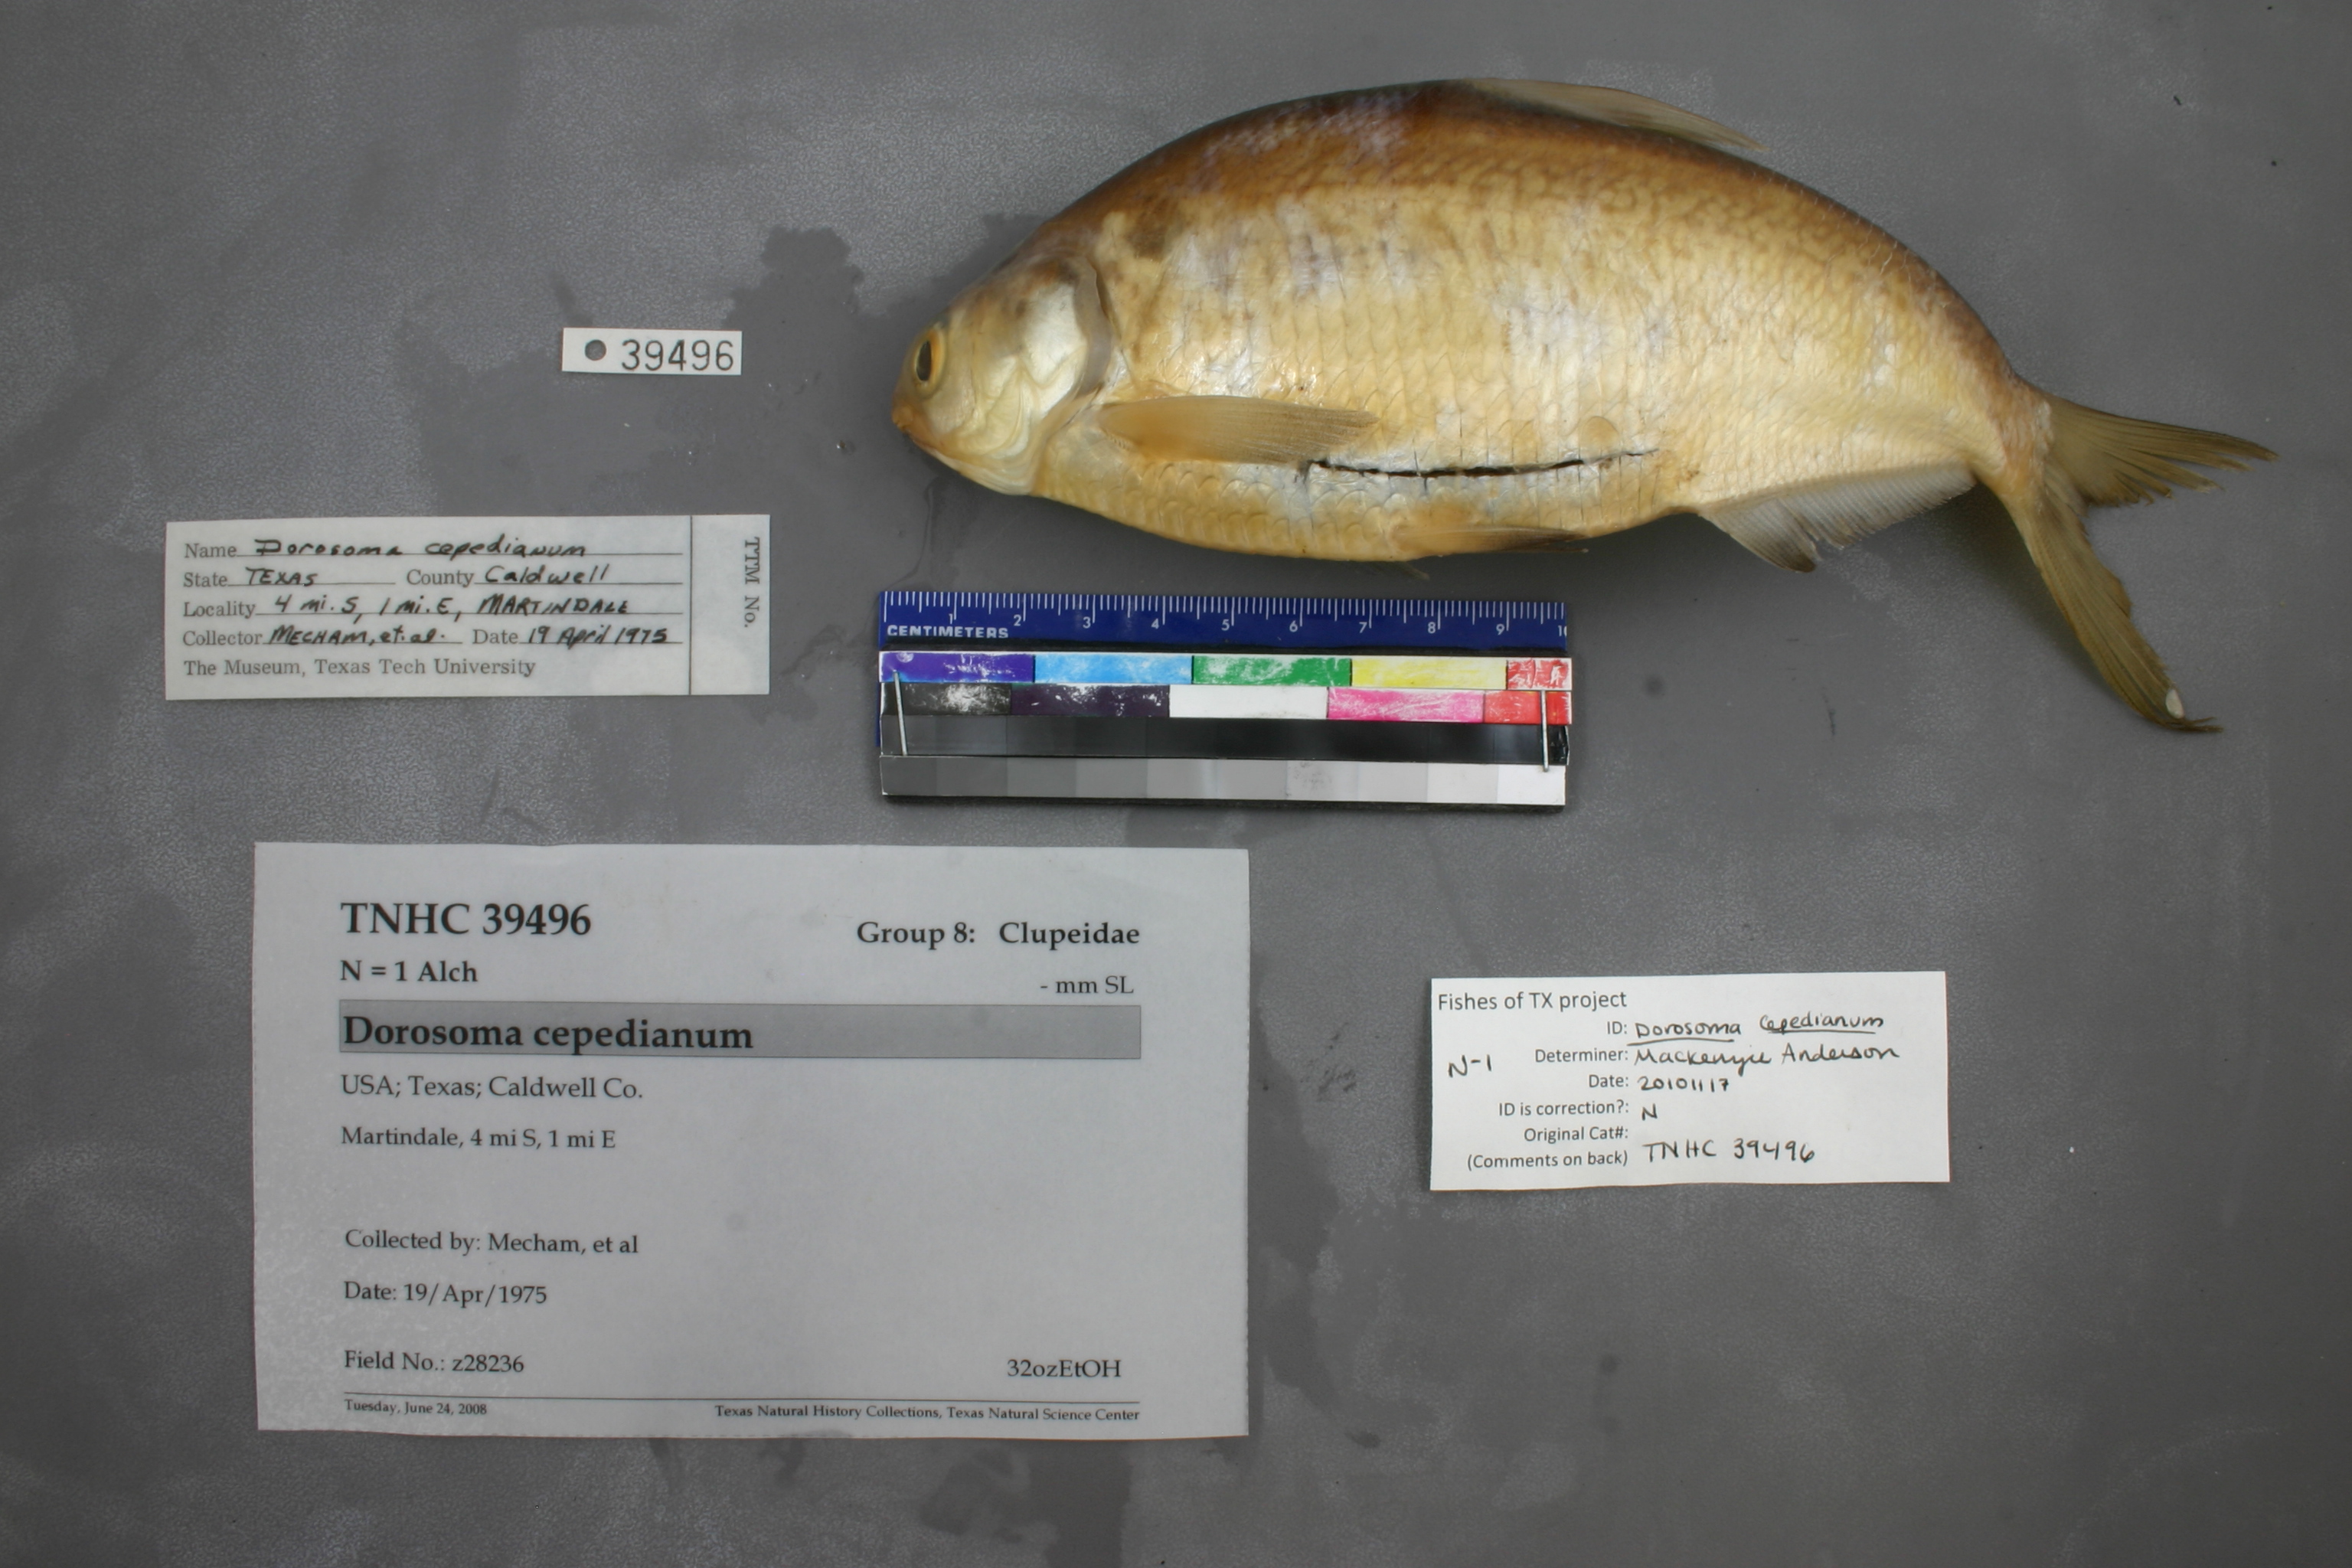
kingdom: Animalia
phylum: Chordata
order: Clupeiformes
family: Clupeidae
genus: Dorosoma
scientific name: Dorosoma cepedianum
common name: Gizzard shad
